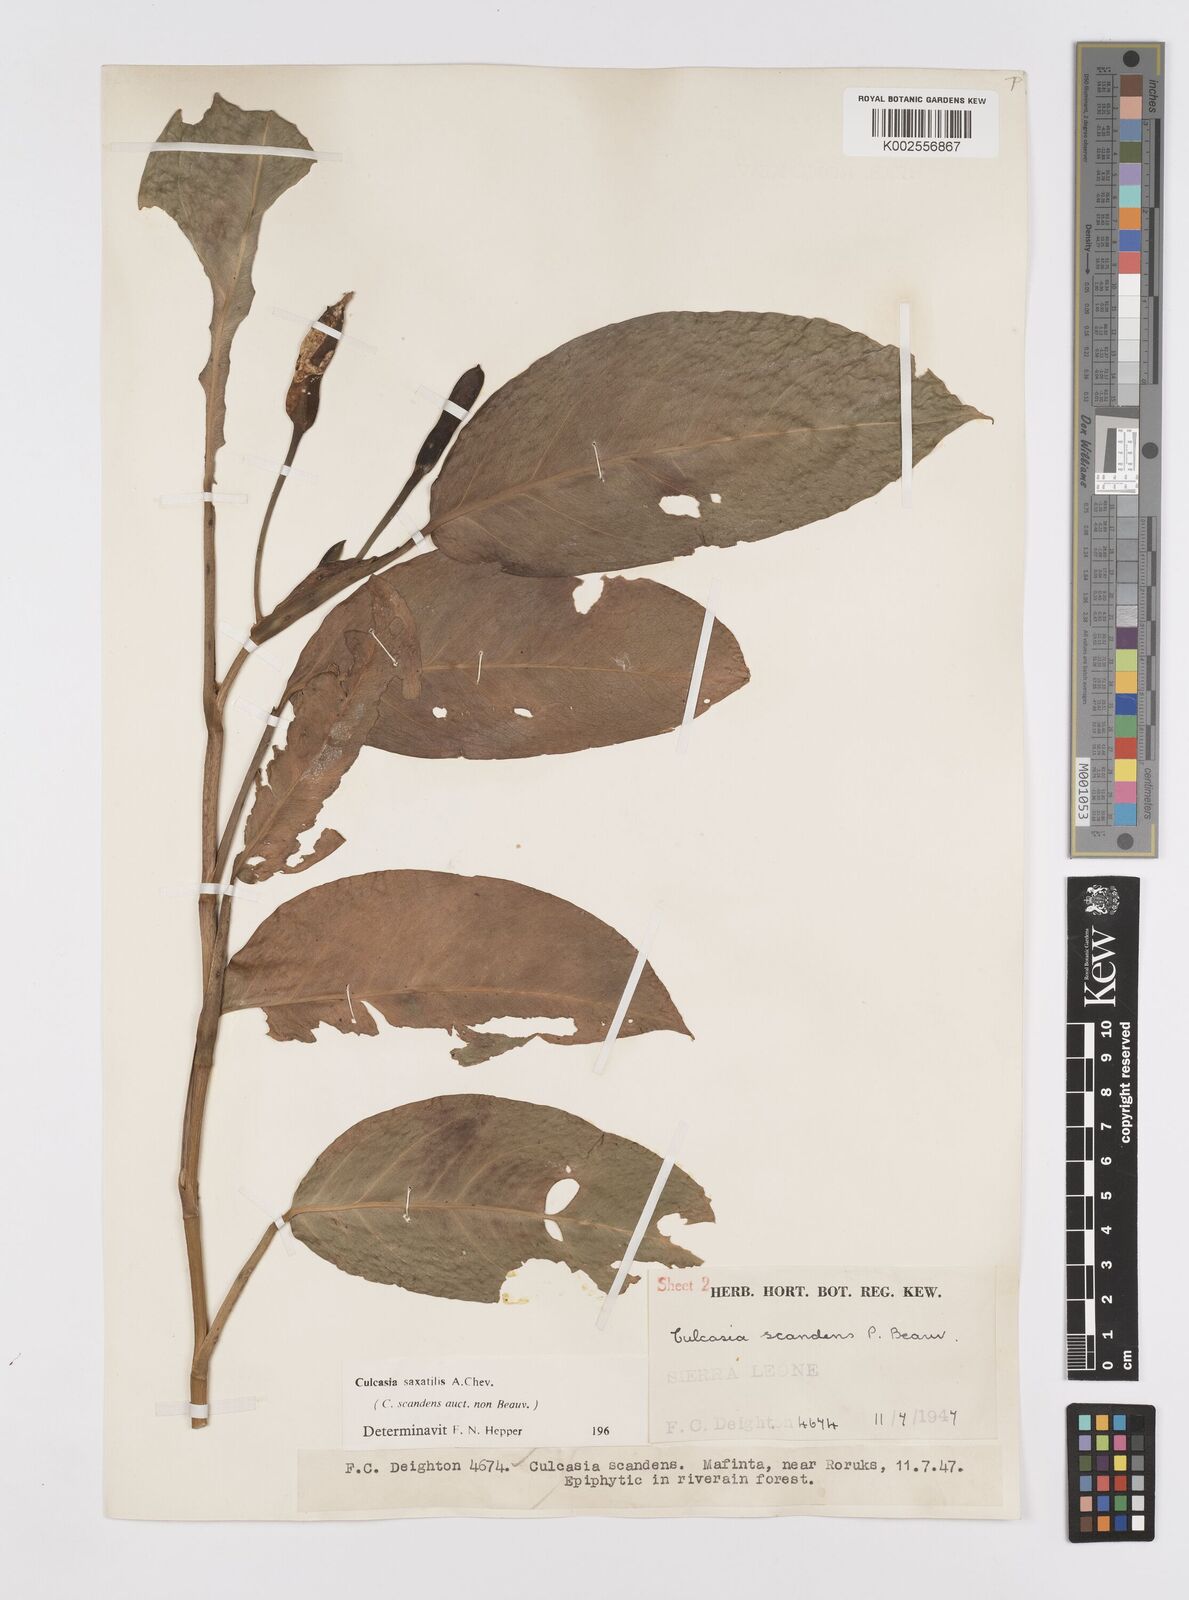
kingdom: Plantae
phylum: Tracheophyta
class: Liliopsida
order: Alismatales
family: Araceae
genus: Culcasia
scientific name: Culcasia scandens
